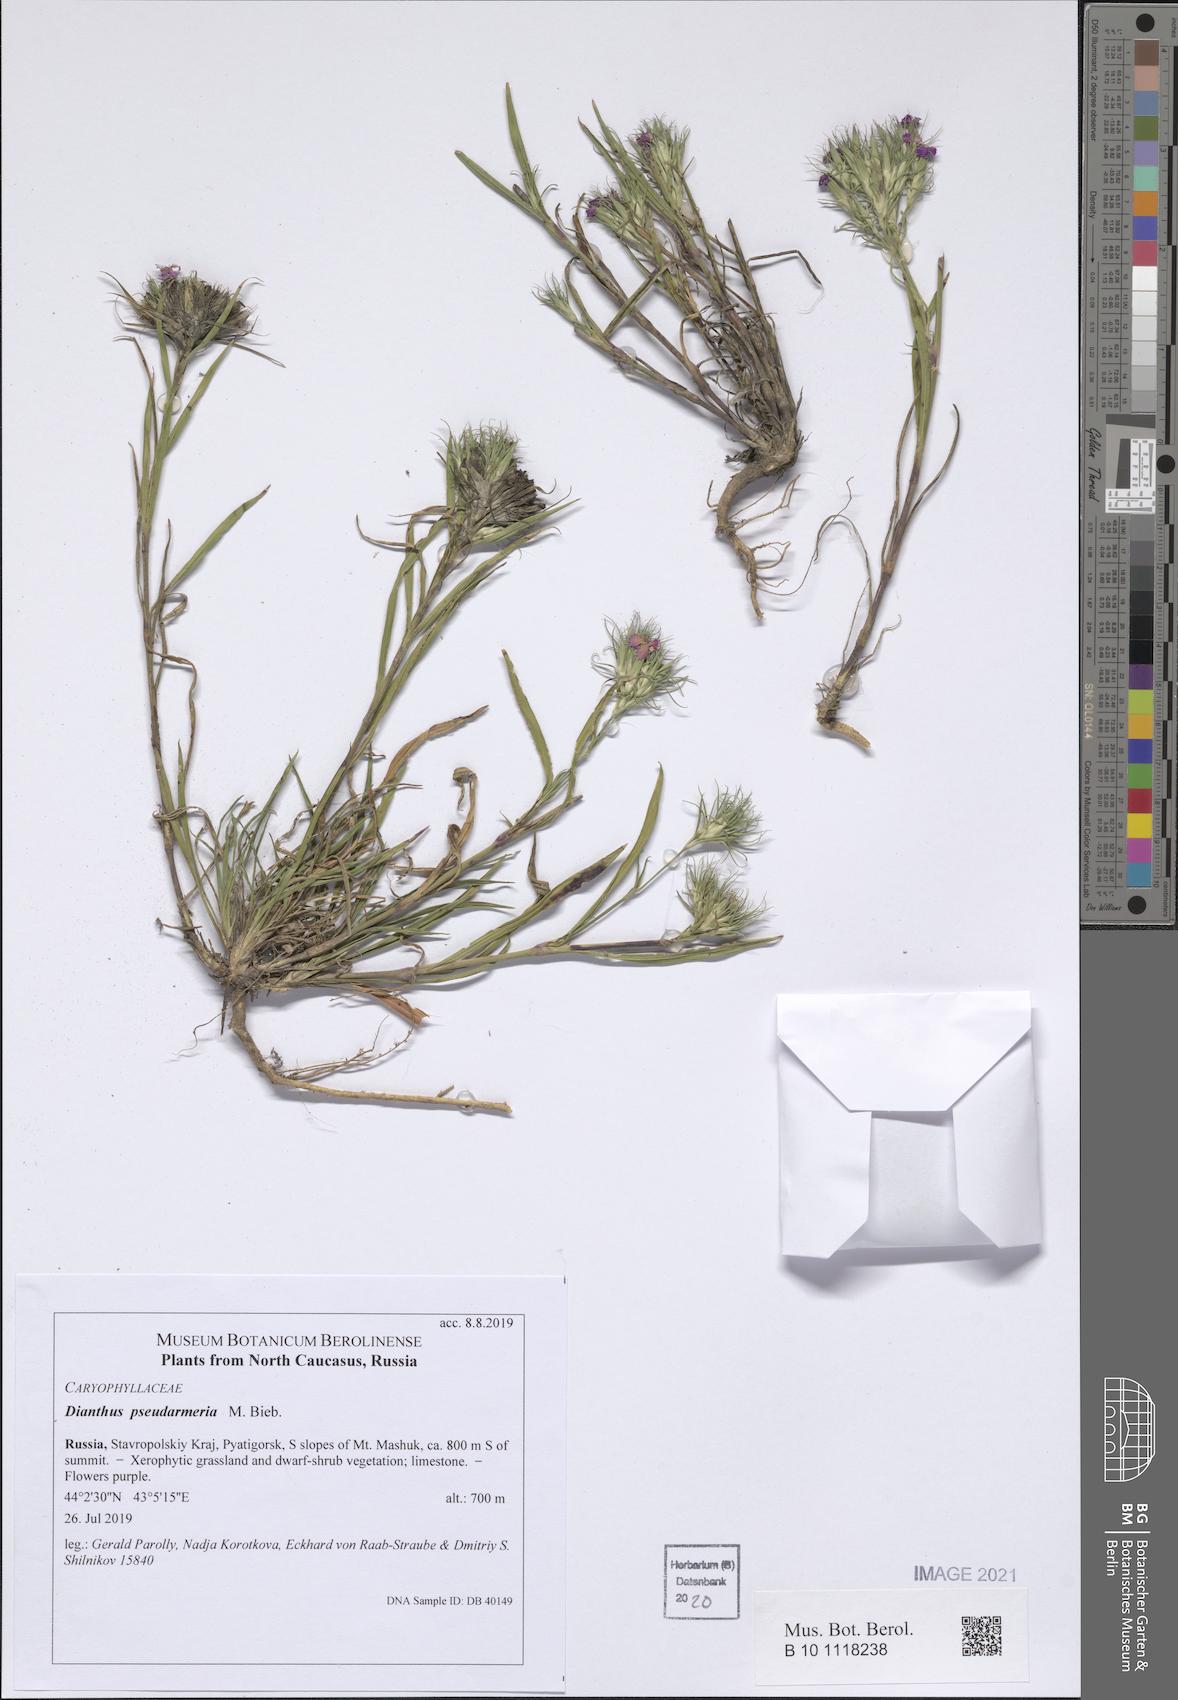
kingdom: Plantae
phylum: Tracheophyta
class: Magnoliopsida
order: Caryophyllales
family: Caryophyllaceae
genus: Dianthus
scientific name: Dianthus pseudarmeria
